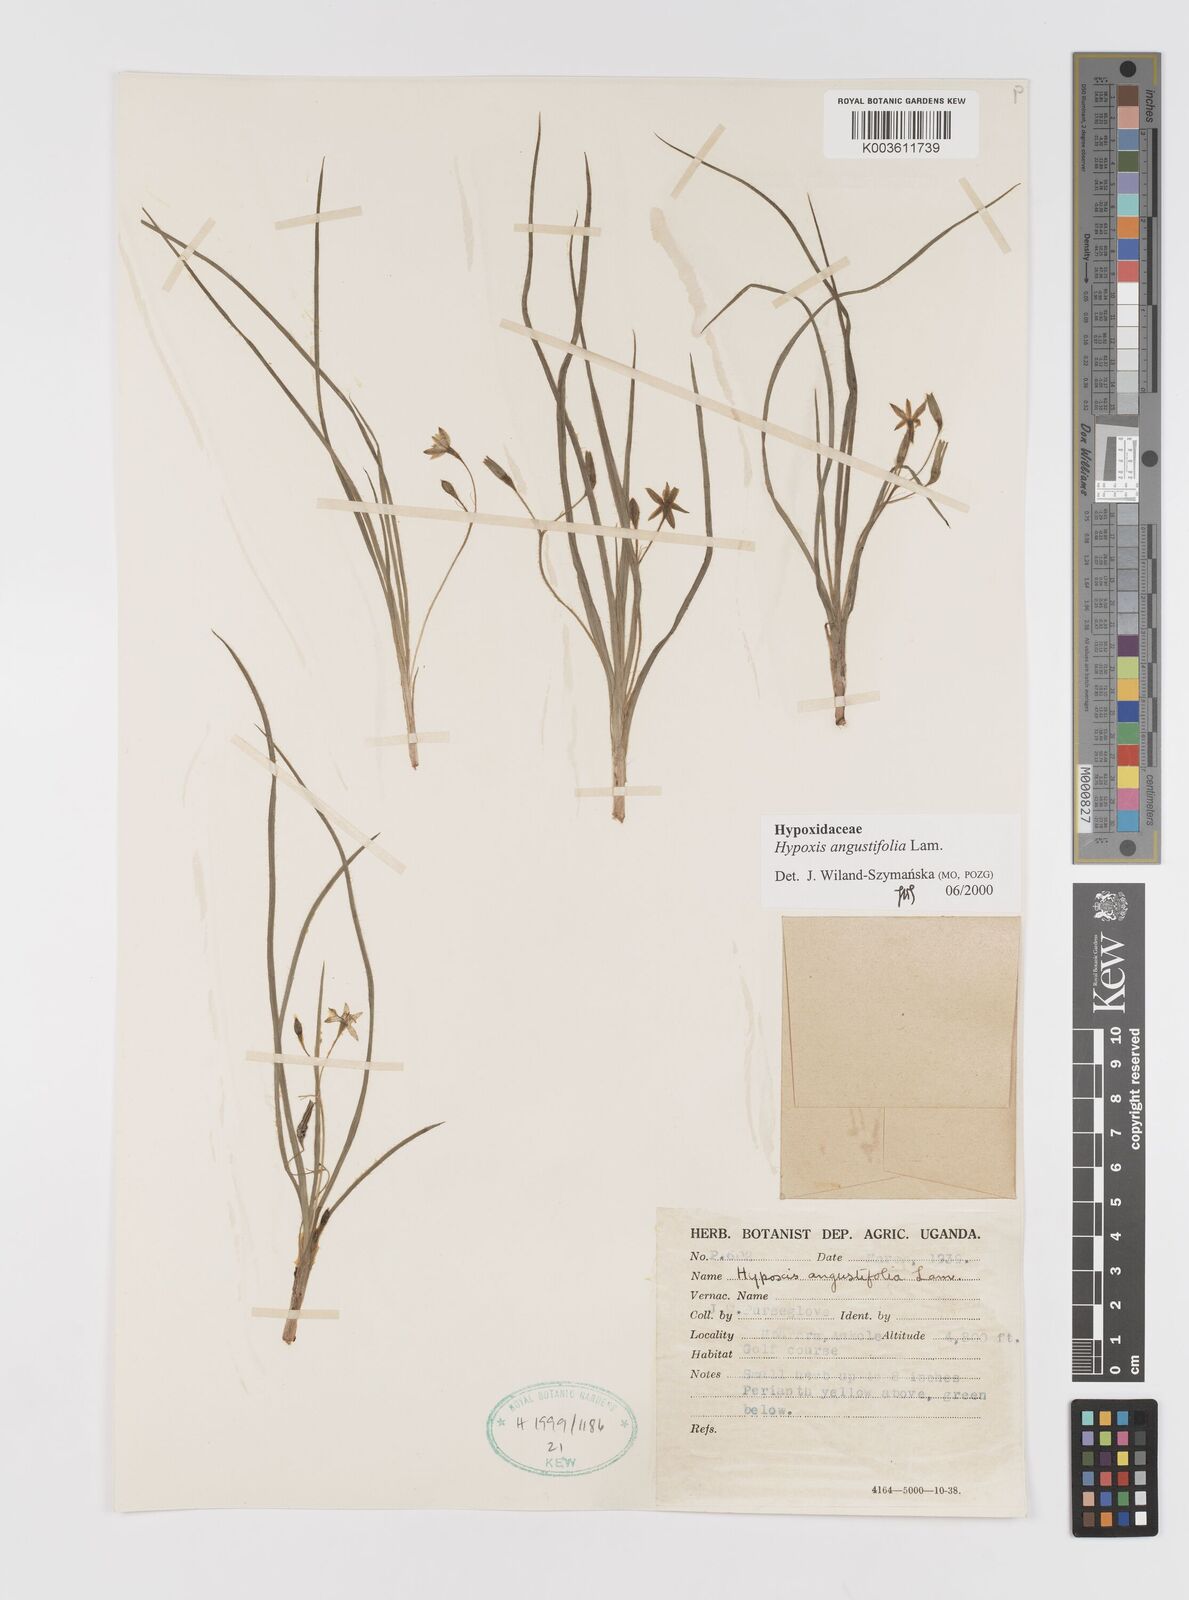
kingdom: Plantae
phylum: Tracheophyta
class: Liliopsida
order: Asparagales
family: Hypoxidaceae
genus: Hypoxis
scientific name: Hypoxis angustifolia
